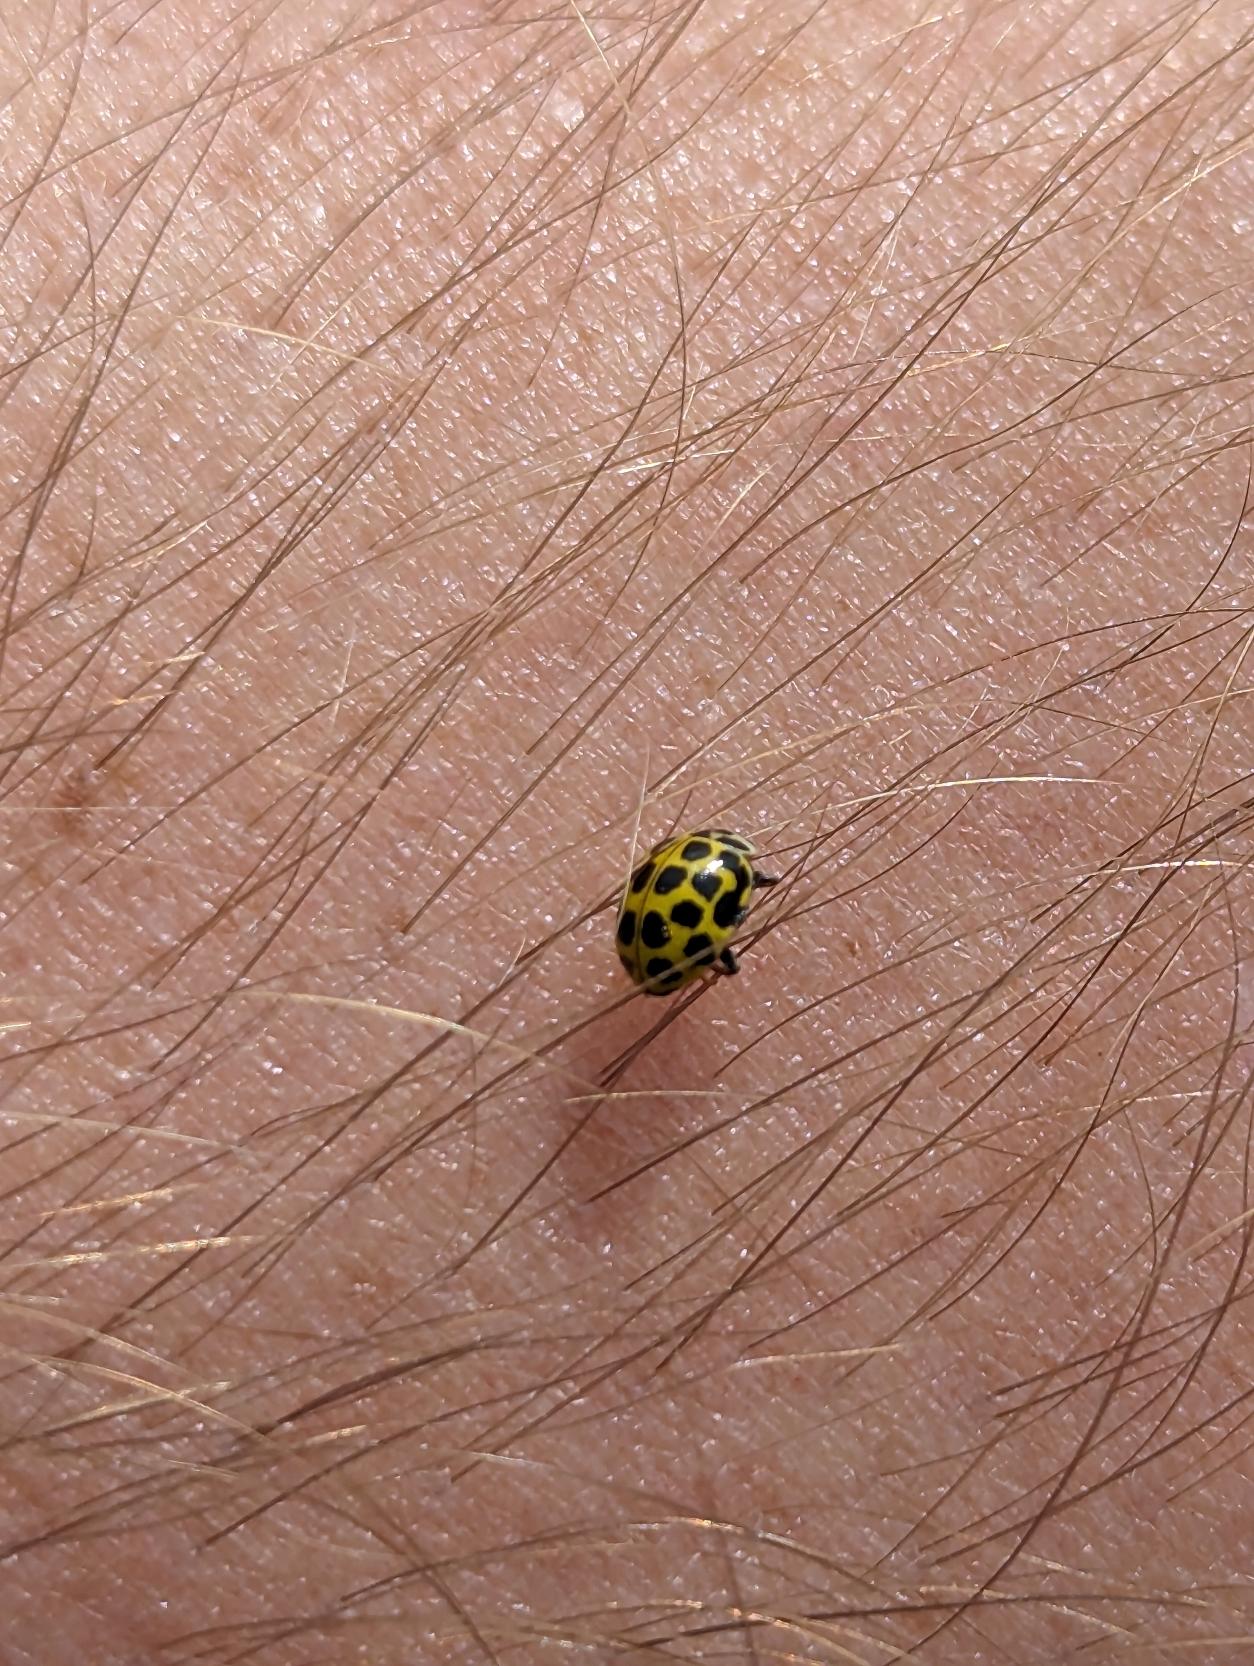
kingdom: Animalia
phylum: Arthropoda
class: Insecta
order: Coleoptera
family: Coccinellidae
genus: Psyllobora
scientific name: Psyllobora vigintiduopunctata
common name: Toogtyveplettet mariehøne
